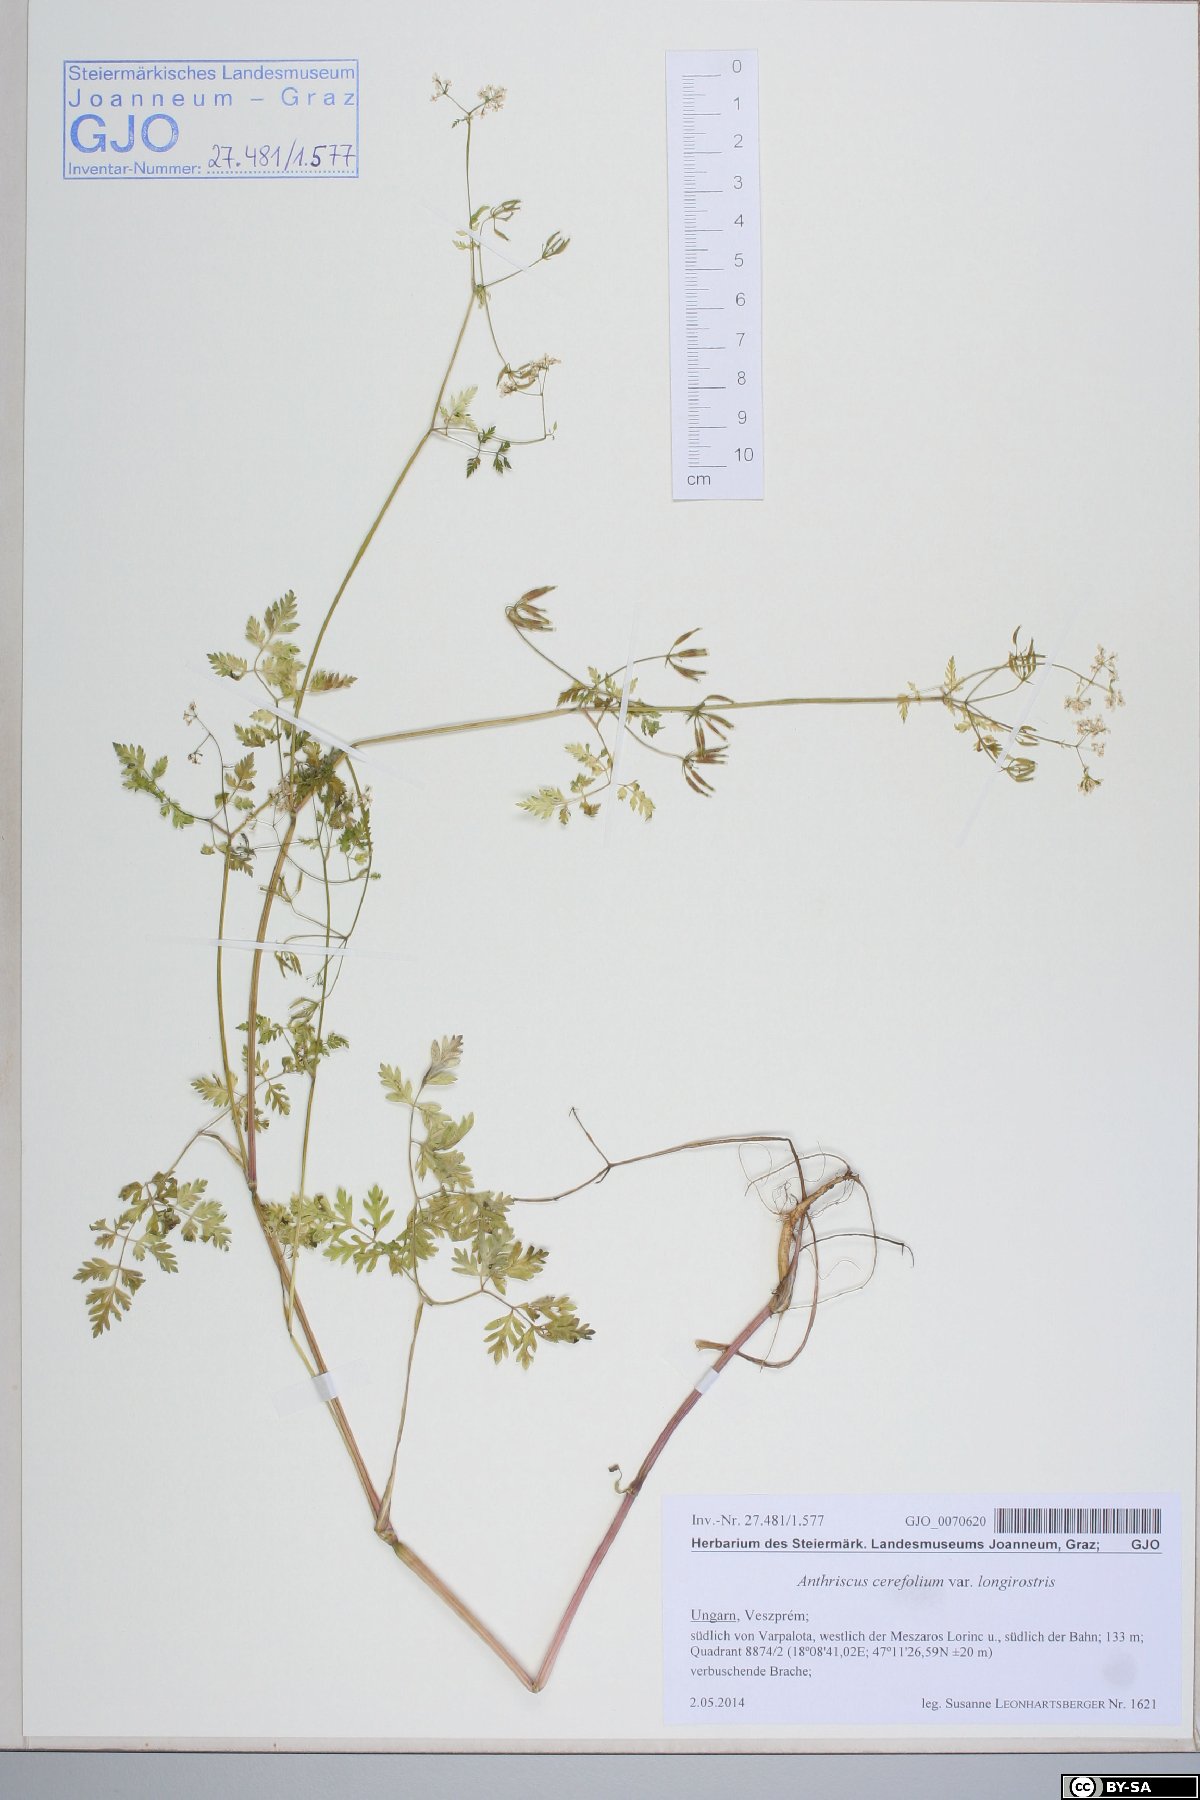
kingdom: Plantae
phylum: Tracheophyta
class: Magnoliopsida
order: Apiales
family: Apiaceae
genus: Anthriscus
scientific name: Anthriscus cerefolium
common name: Garden chervil
